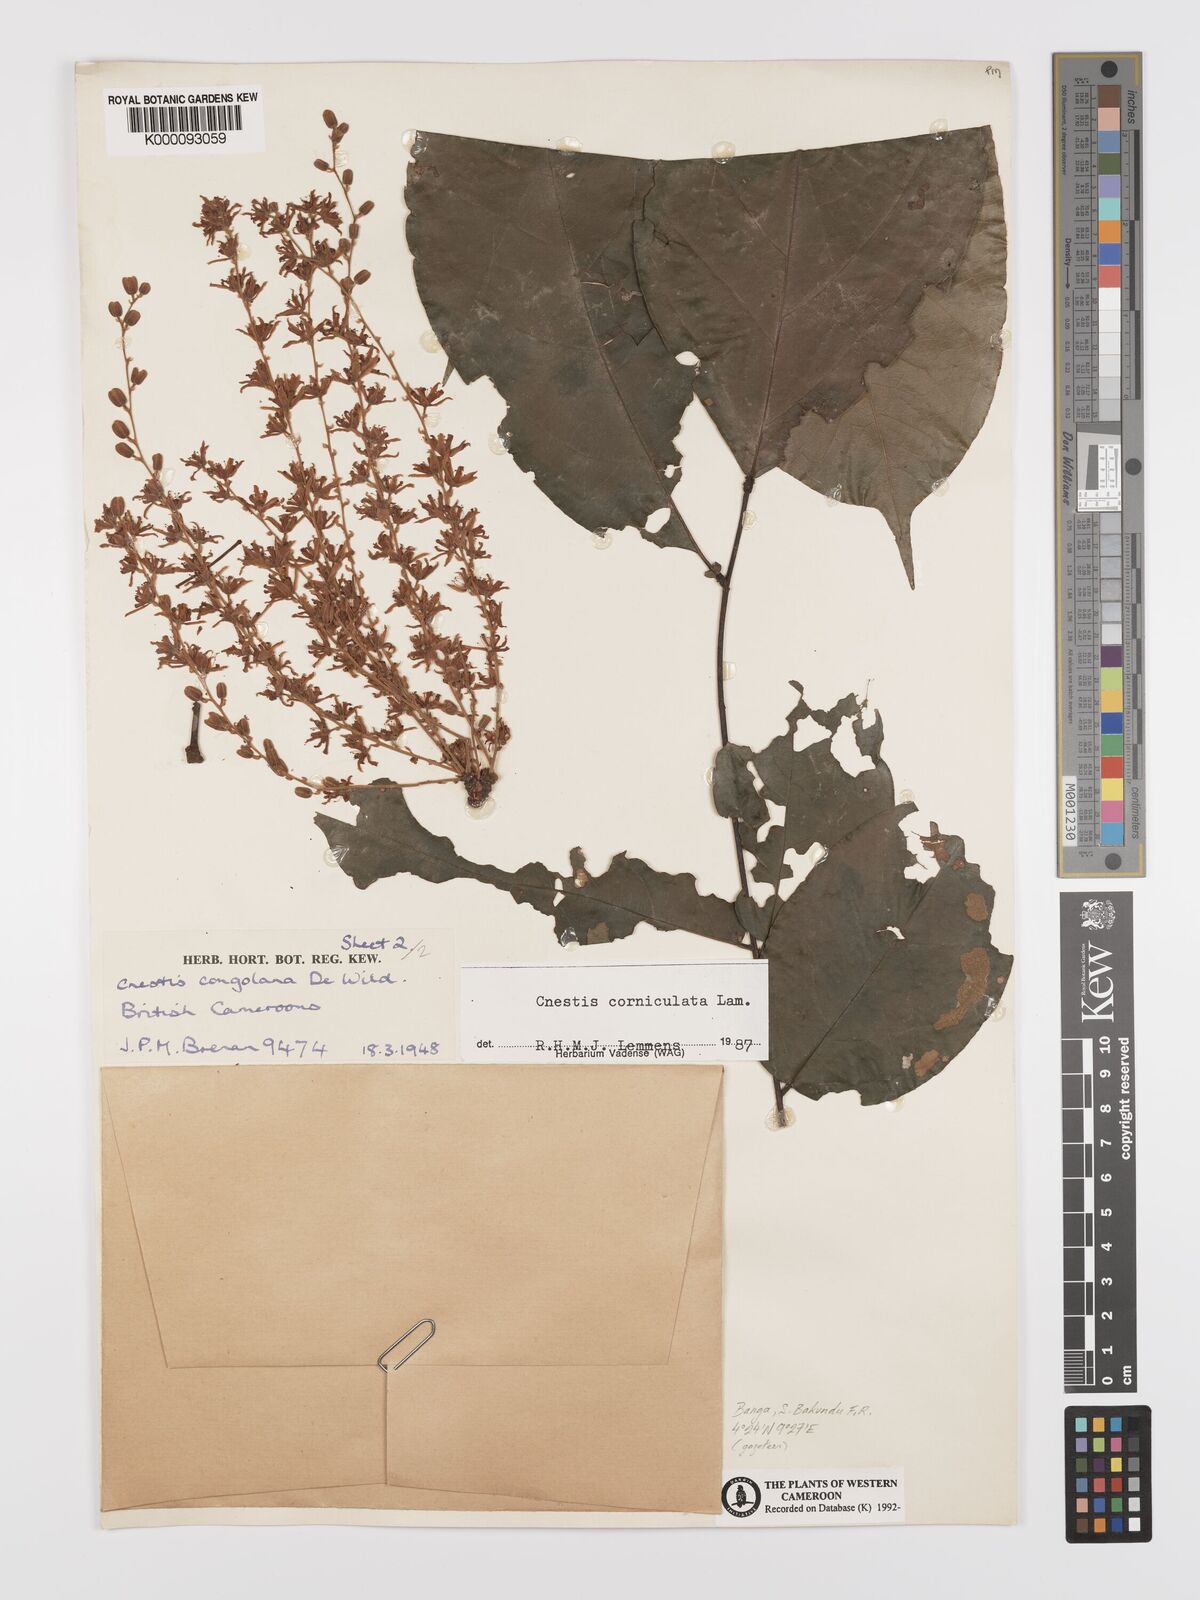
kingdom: Plantae
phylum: Tracheophyta
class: Magnoliopsida
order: Oxalidales
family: Connaraceae
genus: Cnestis
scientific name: Cnestis corniculata
